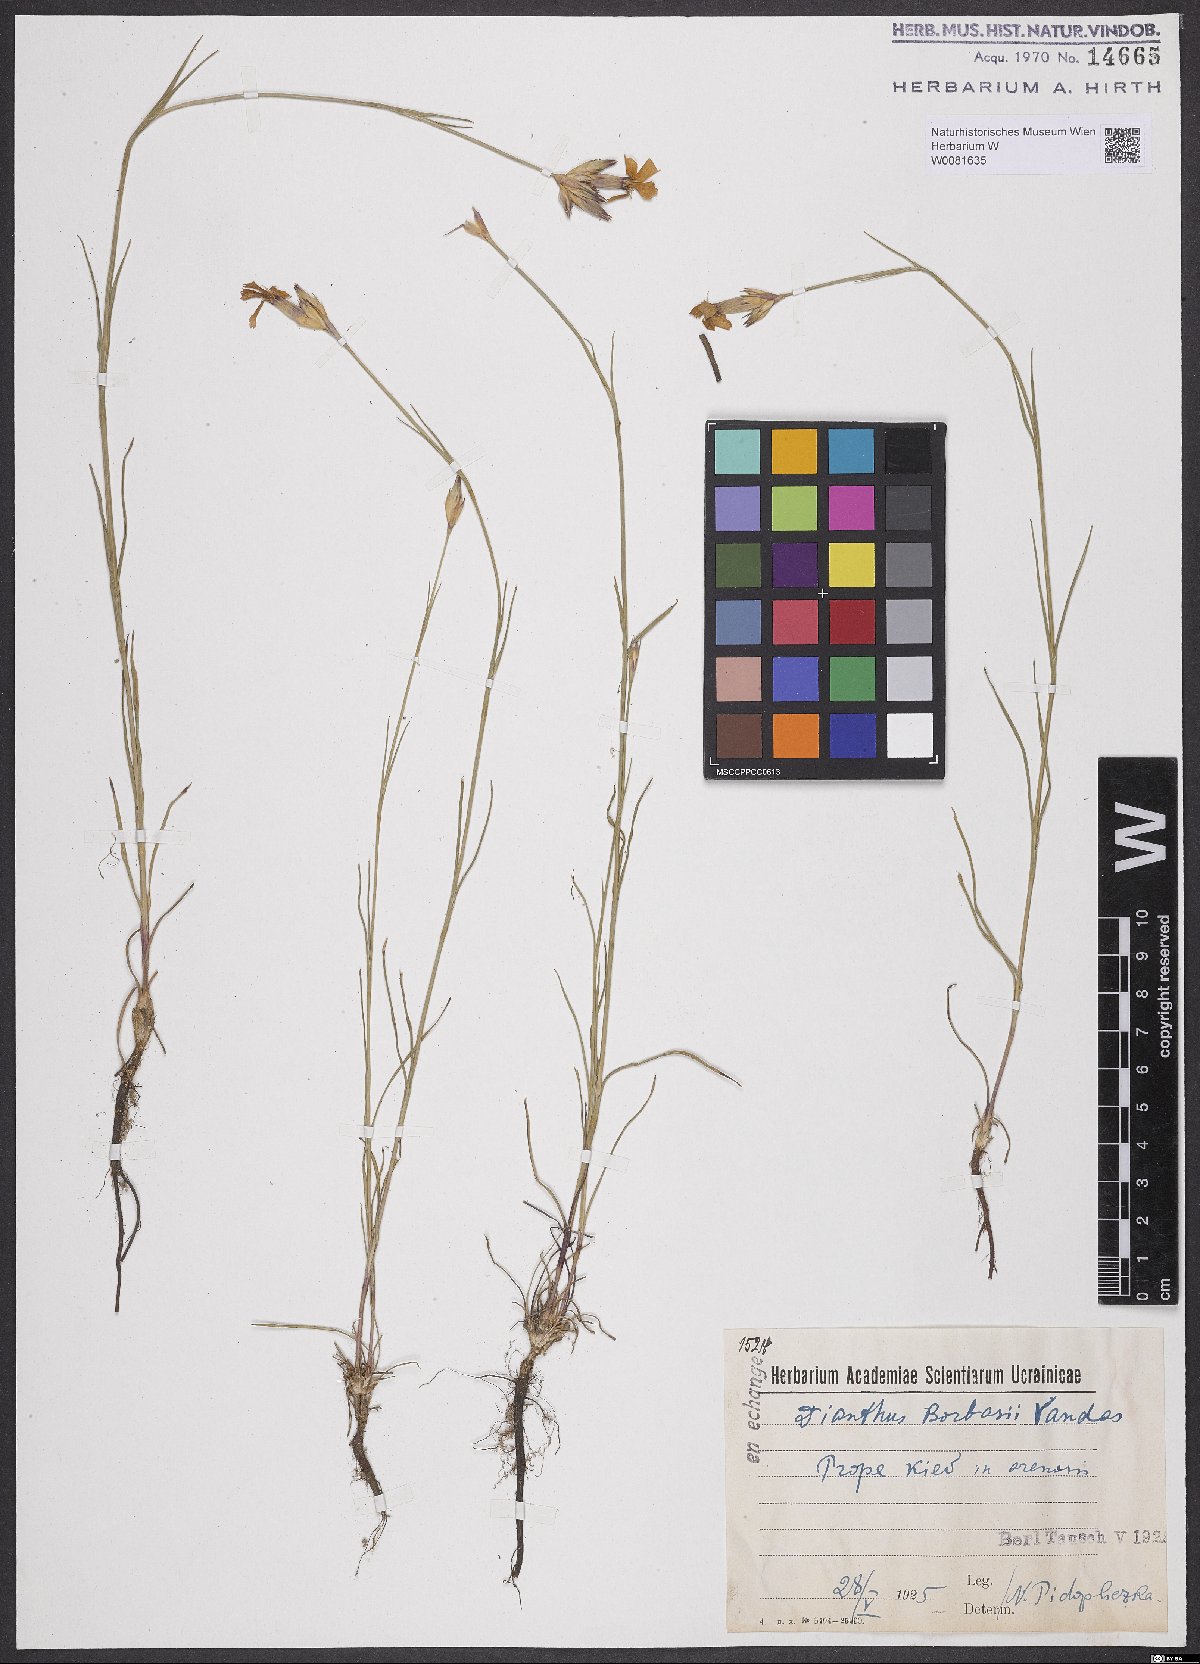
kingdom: Plantae
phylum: Tracheophyta
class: Magnoliopsida
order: Caryophyllales
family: Caryophyllaceae
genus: Dianthus
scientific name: Dianthus borbasii
